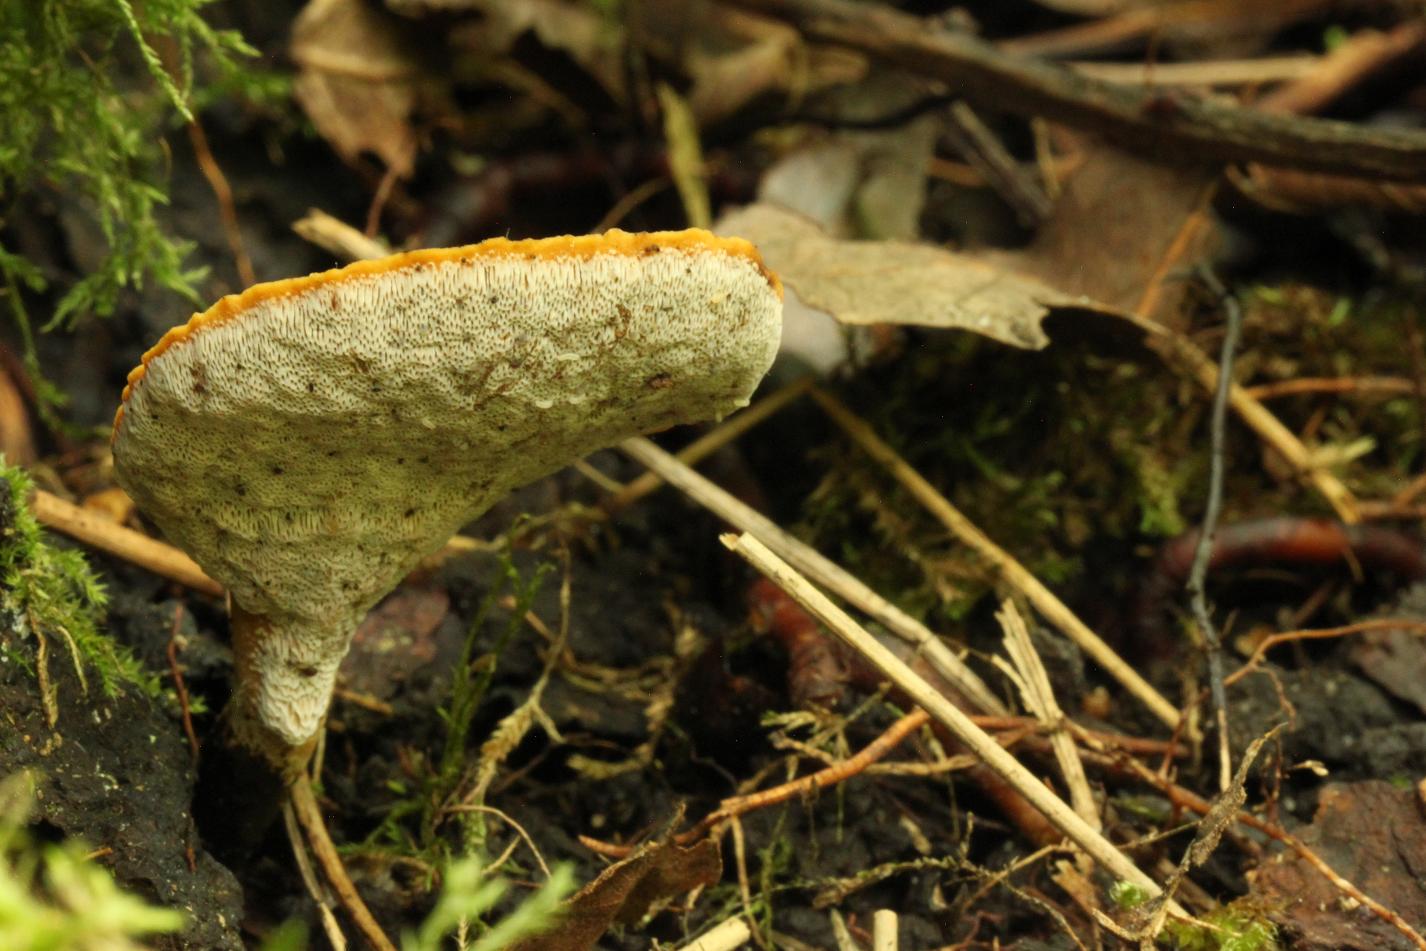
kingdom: Fungi
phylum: Basidiomycota
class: Agaricomycetes
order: Polyporales
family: Polyporaceae
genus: Cerioporus
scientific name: Cerioporus varius
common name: foranderlig stilkporesvamp
